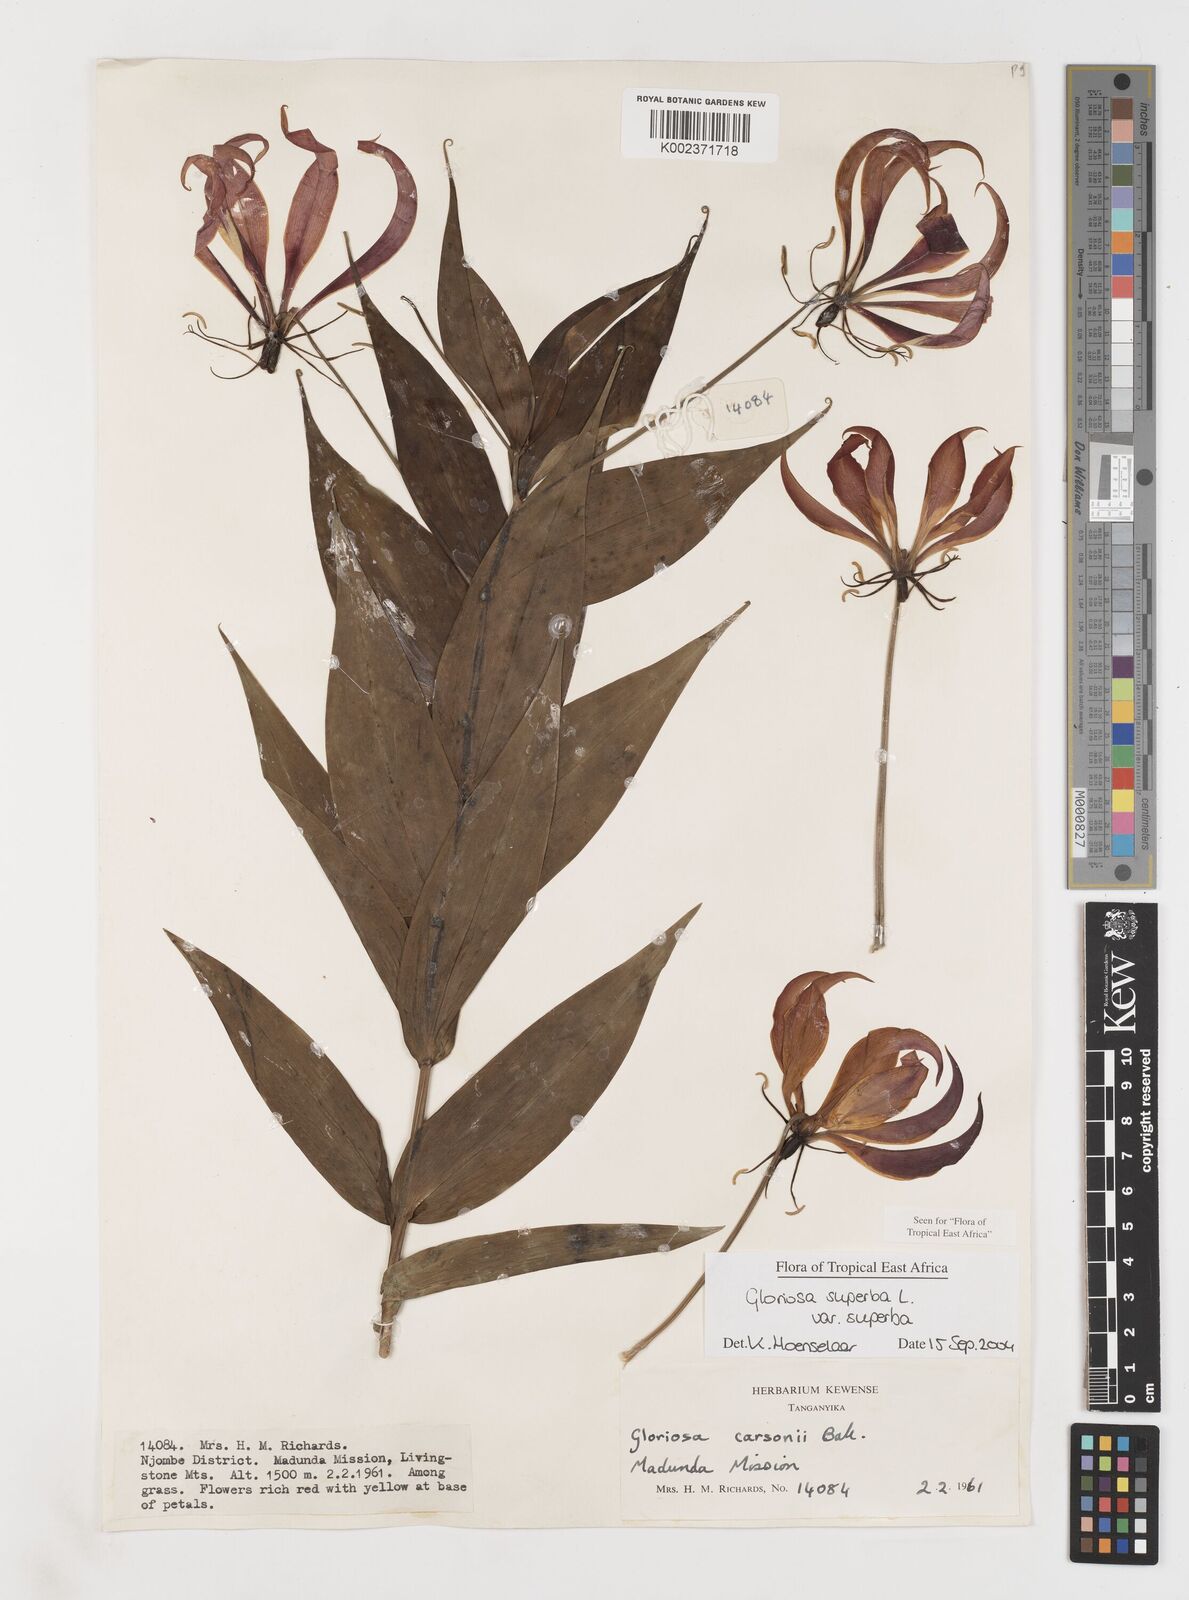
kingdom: Plantae
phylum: Tracheophyta
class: Liliopsida
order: Liliales
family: Colchicaceae
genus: Gloriosa
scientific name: Gloriosa simplex
